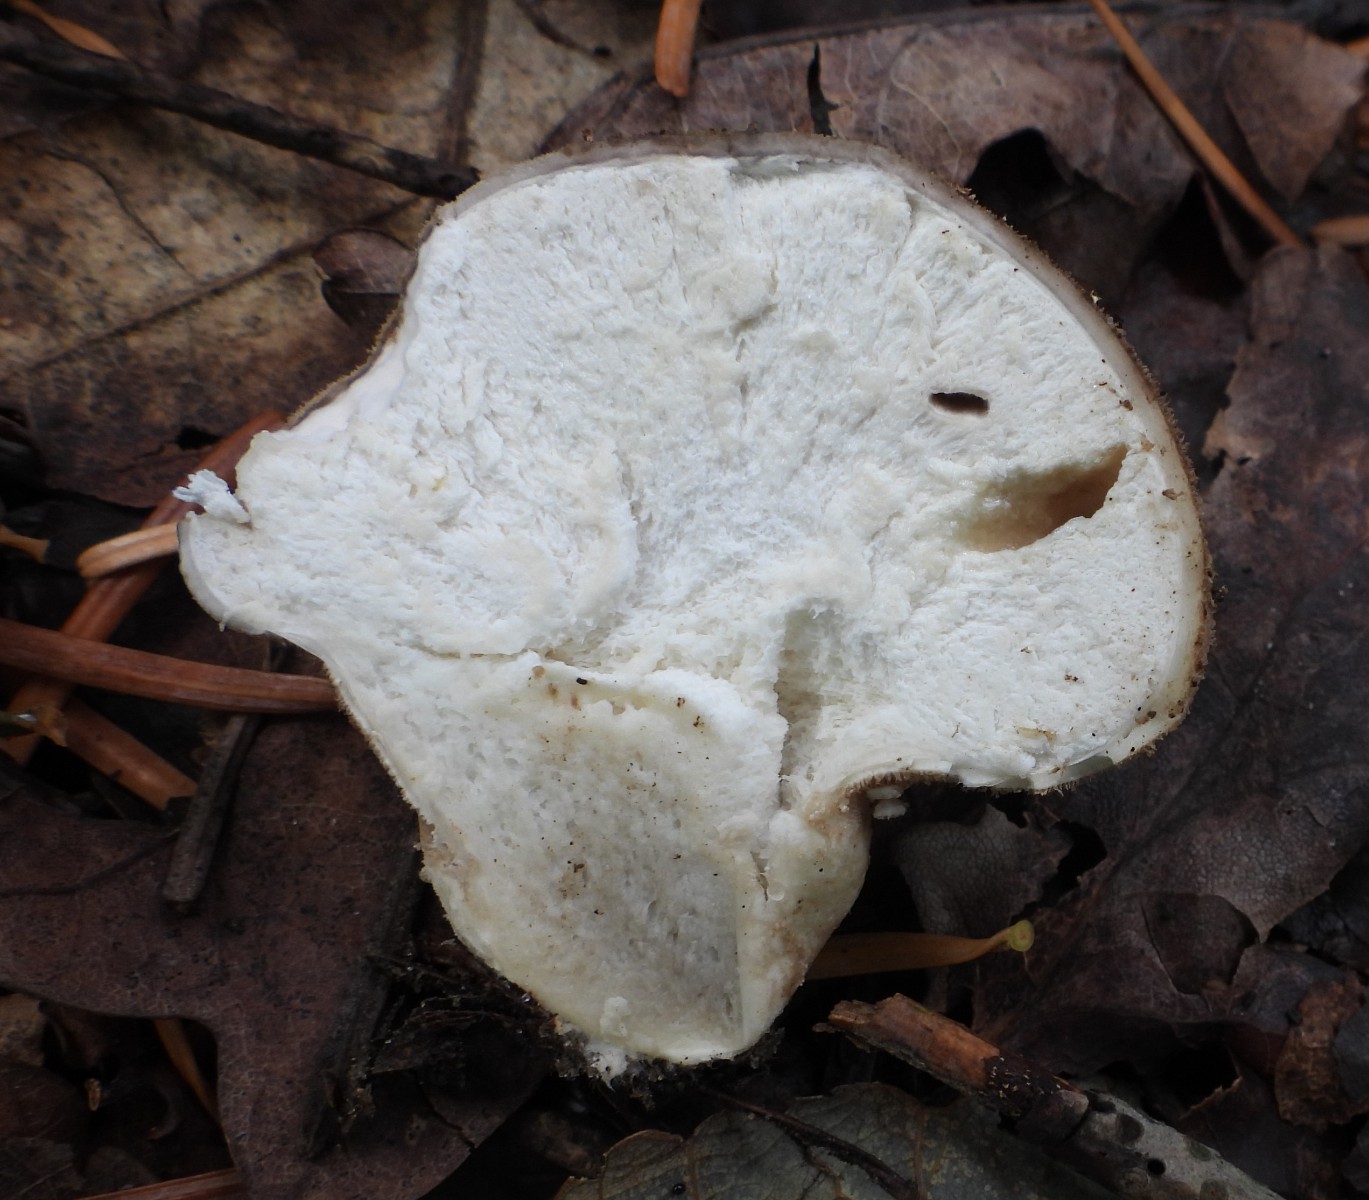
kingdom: Fungi
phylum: Basidiomycota
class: Agaricomycetes
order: Agaricales
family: Lycoperdaceae
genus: Lycoperdon
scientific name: Lycoperdon molle
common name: skov-støvbold
